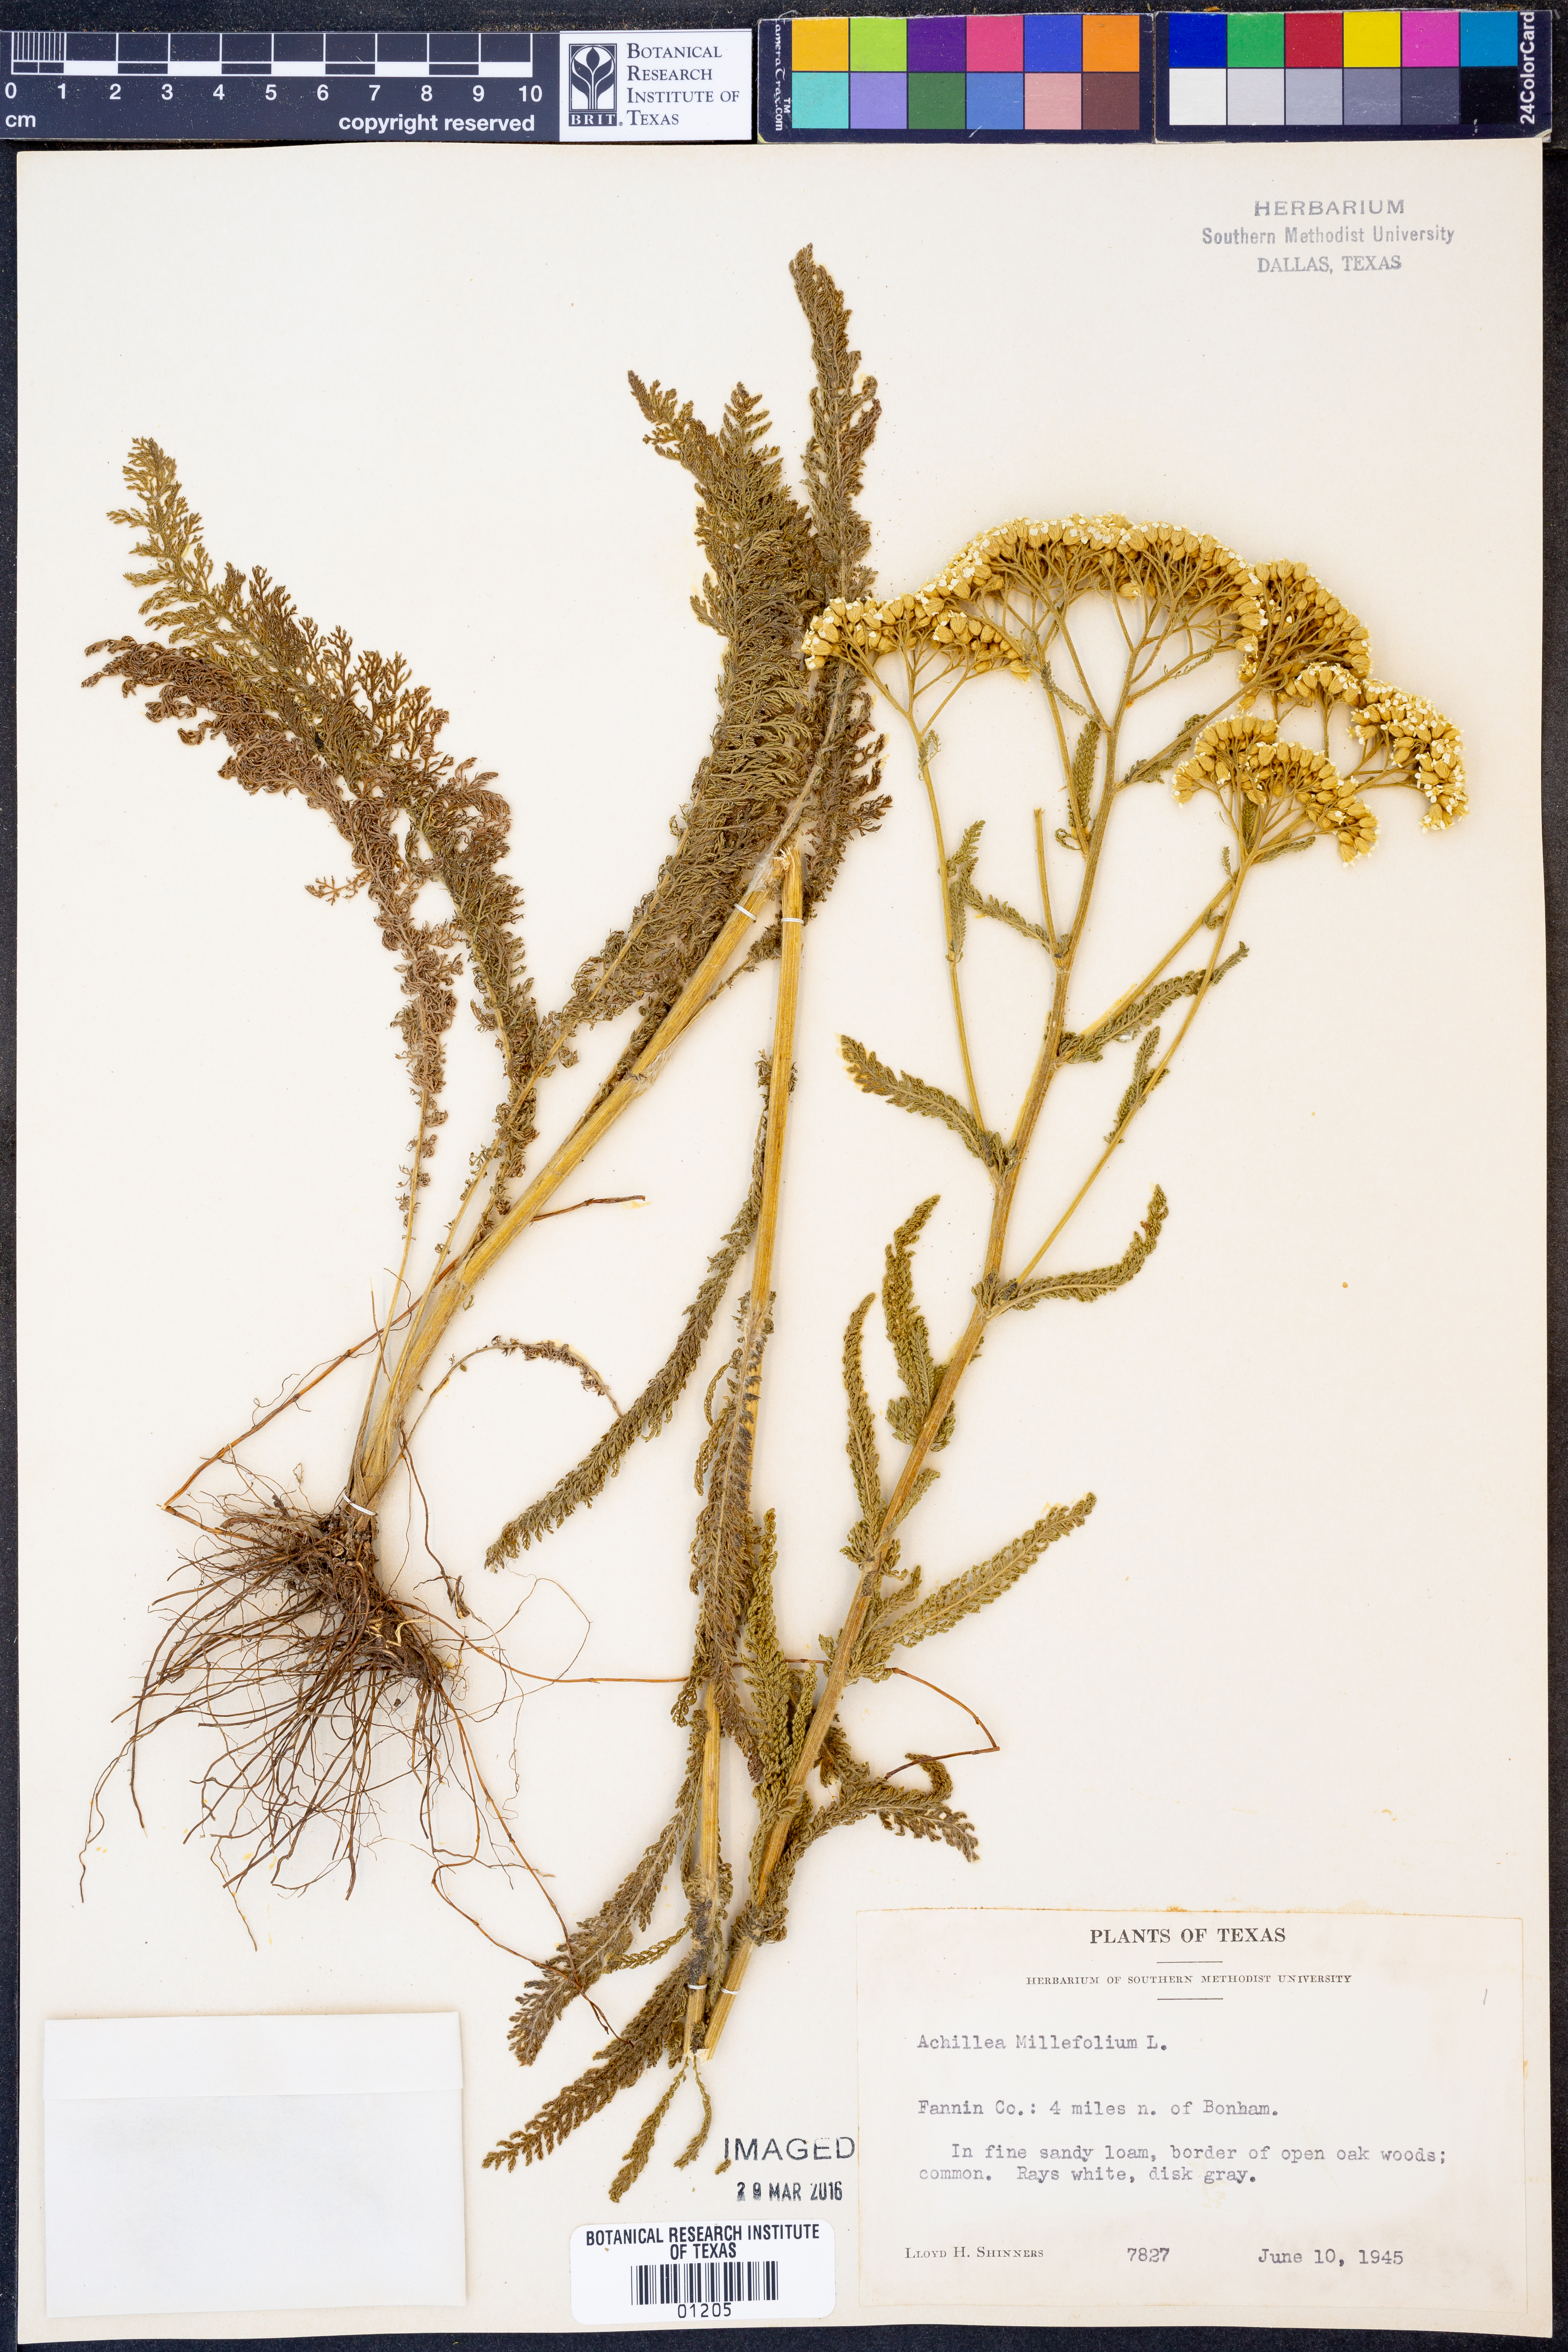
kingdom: Plantae
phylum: Tracheophyta
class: Magnoliopsida
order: Asterales
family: Asteraceae
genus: Achillea
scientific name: Achillea millefolium
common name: Yarrow
